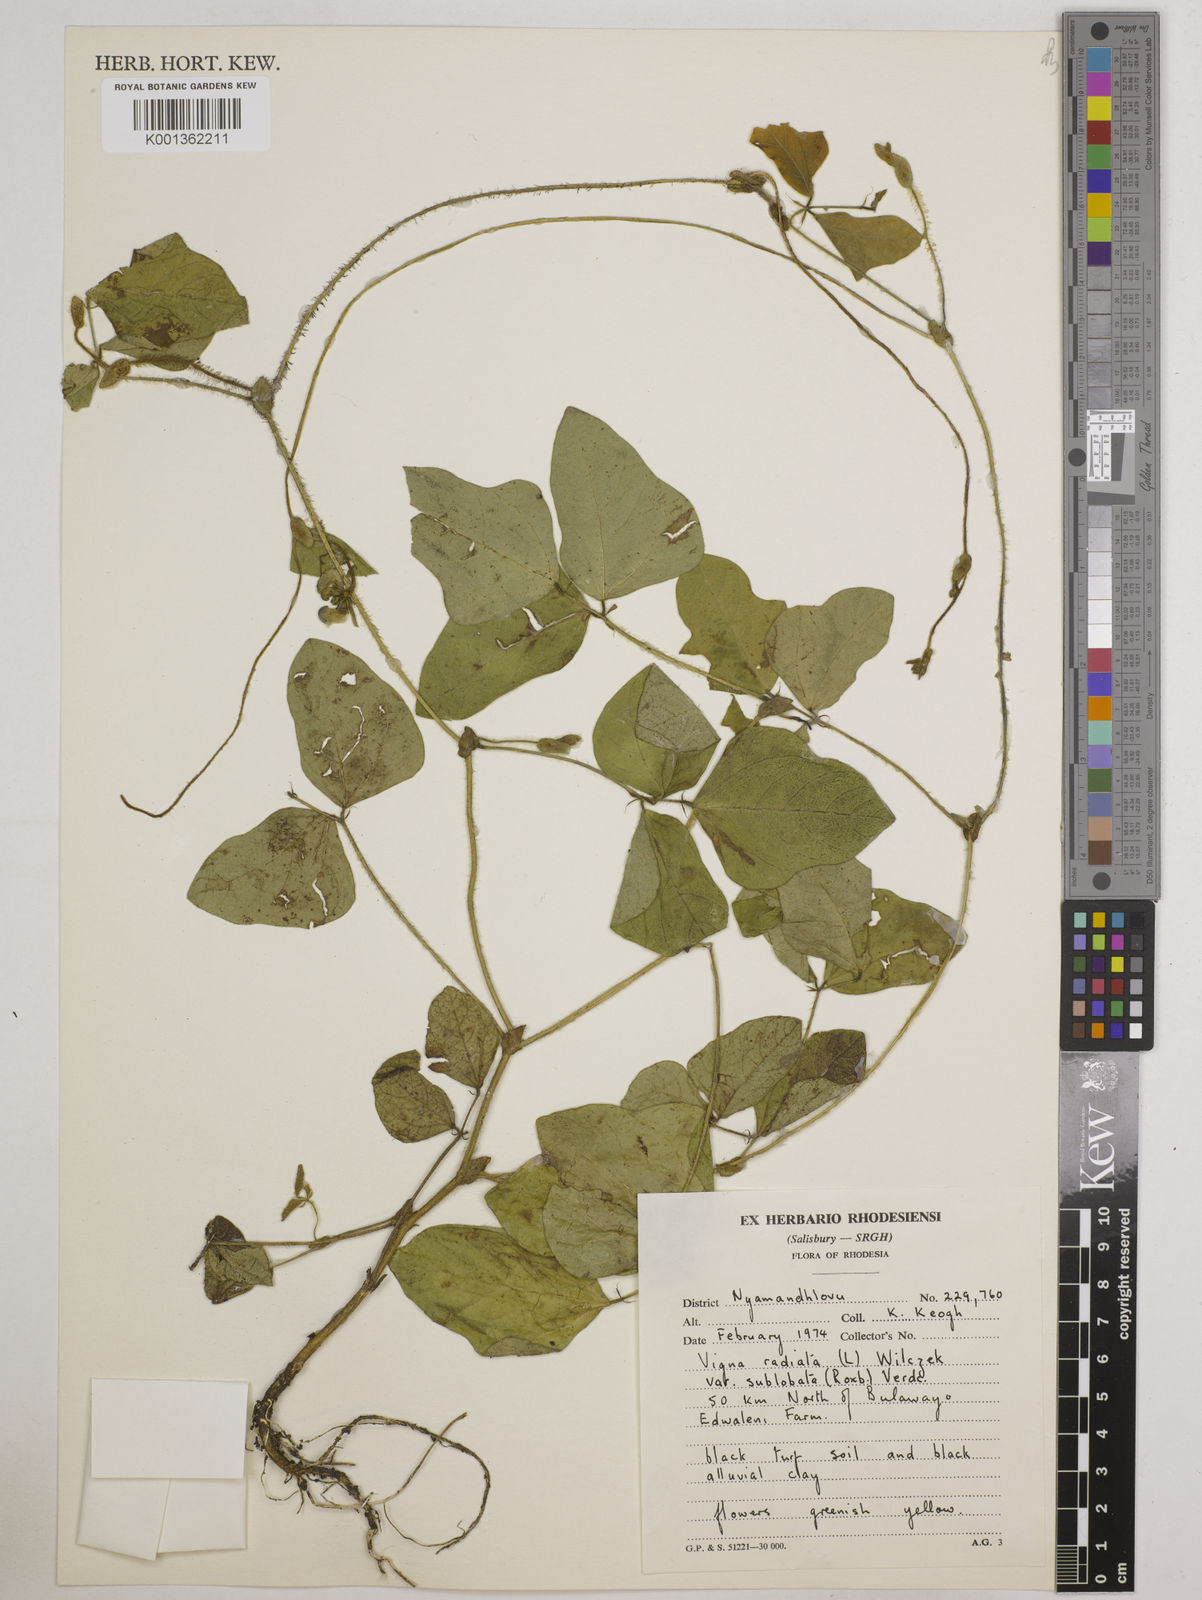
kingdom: Plantae
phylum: Tracheophyta
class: Magnoliopsida
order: Fabales
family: Fabaceae
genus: Vigna
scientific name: Vigna radiata
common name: Mung-bean
